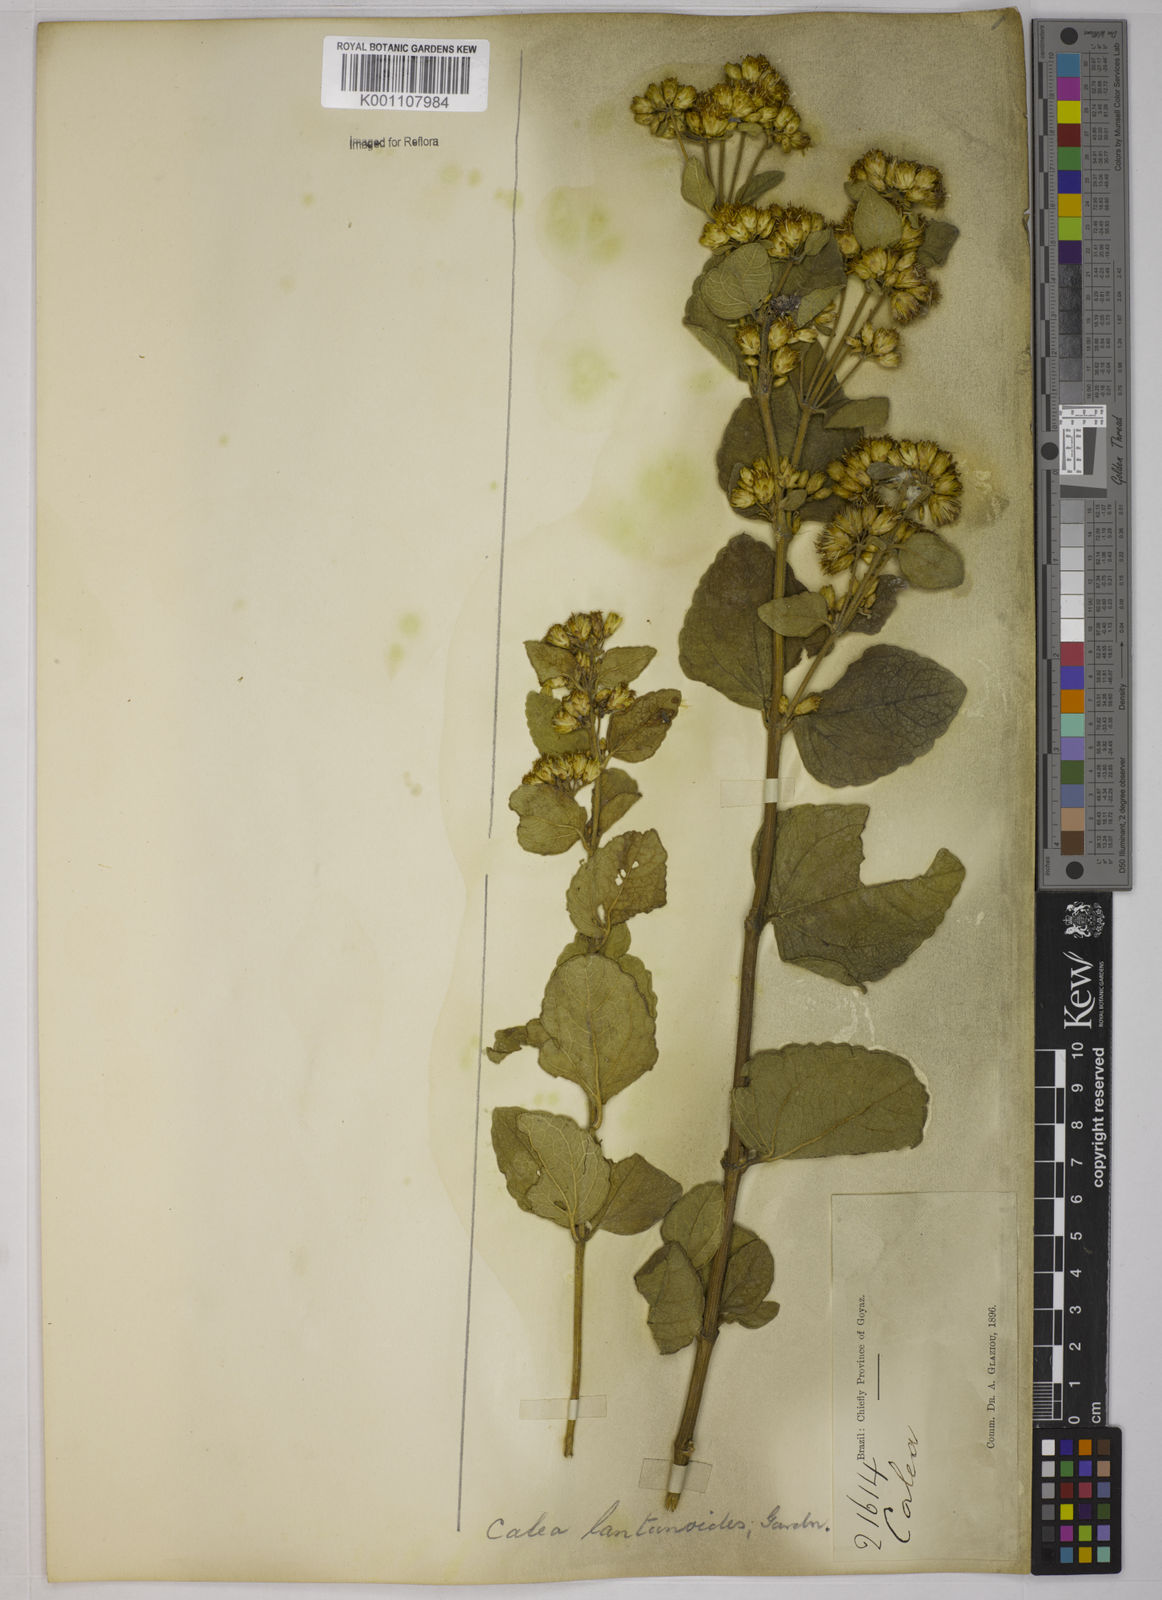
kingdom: Plantae
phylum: Tracheophyta
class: Magnoliopsida
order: Asterales
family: Asteraceae
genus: Calea
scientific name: Calea lantanoides
